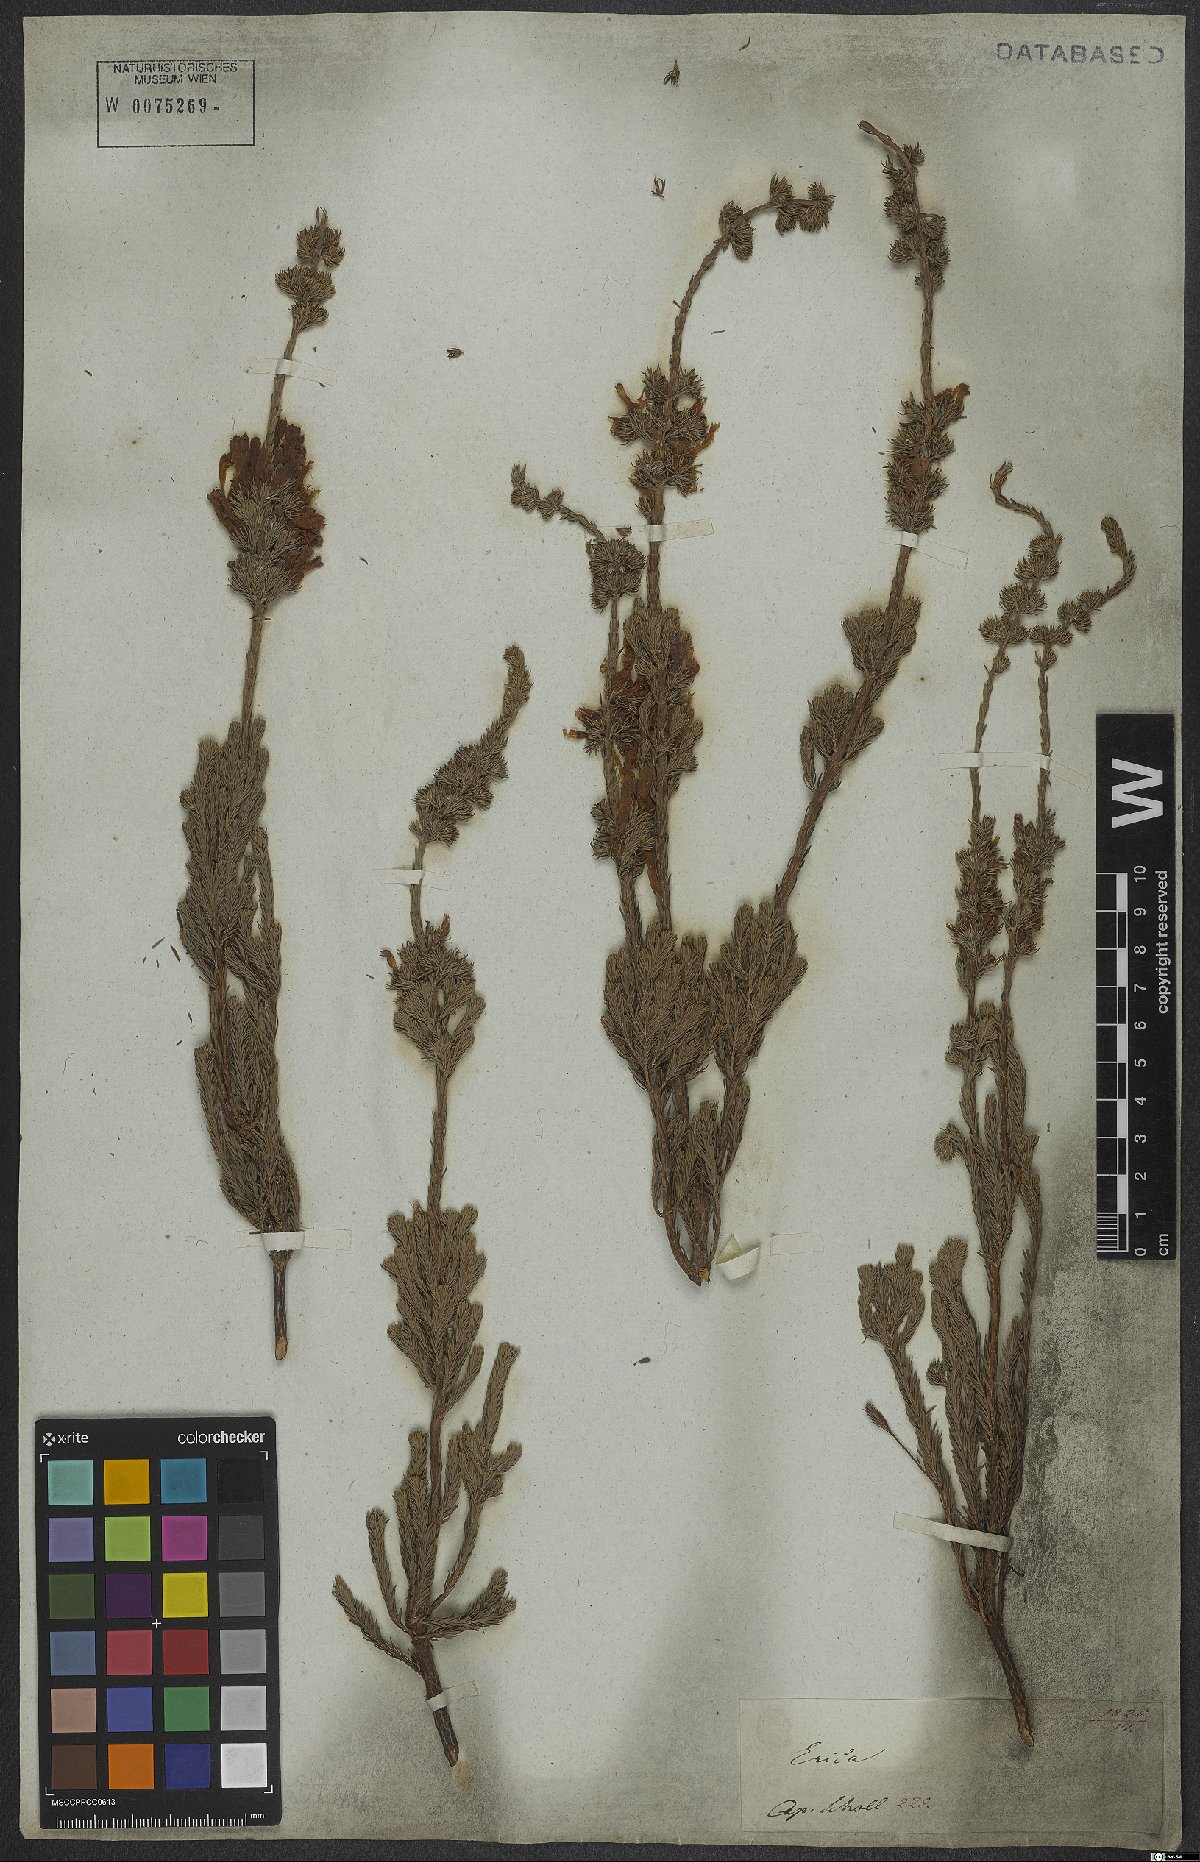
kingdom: Plantae
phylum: Tracheophyta
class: Magnoliopsida
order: Ericales
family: Ericaceae
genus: Erica
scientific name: Erica verticillata
